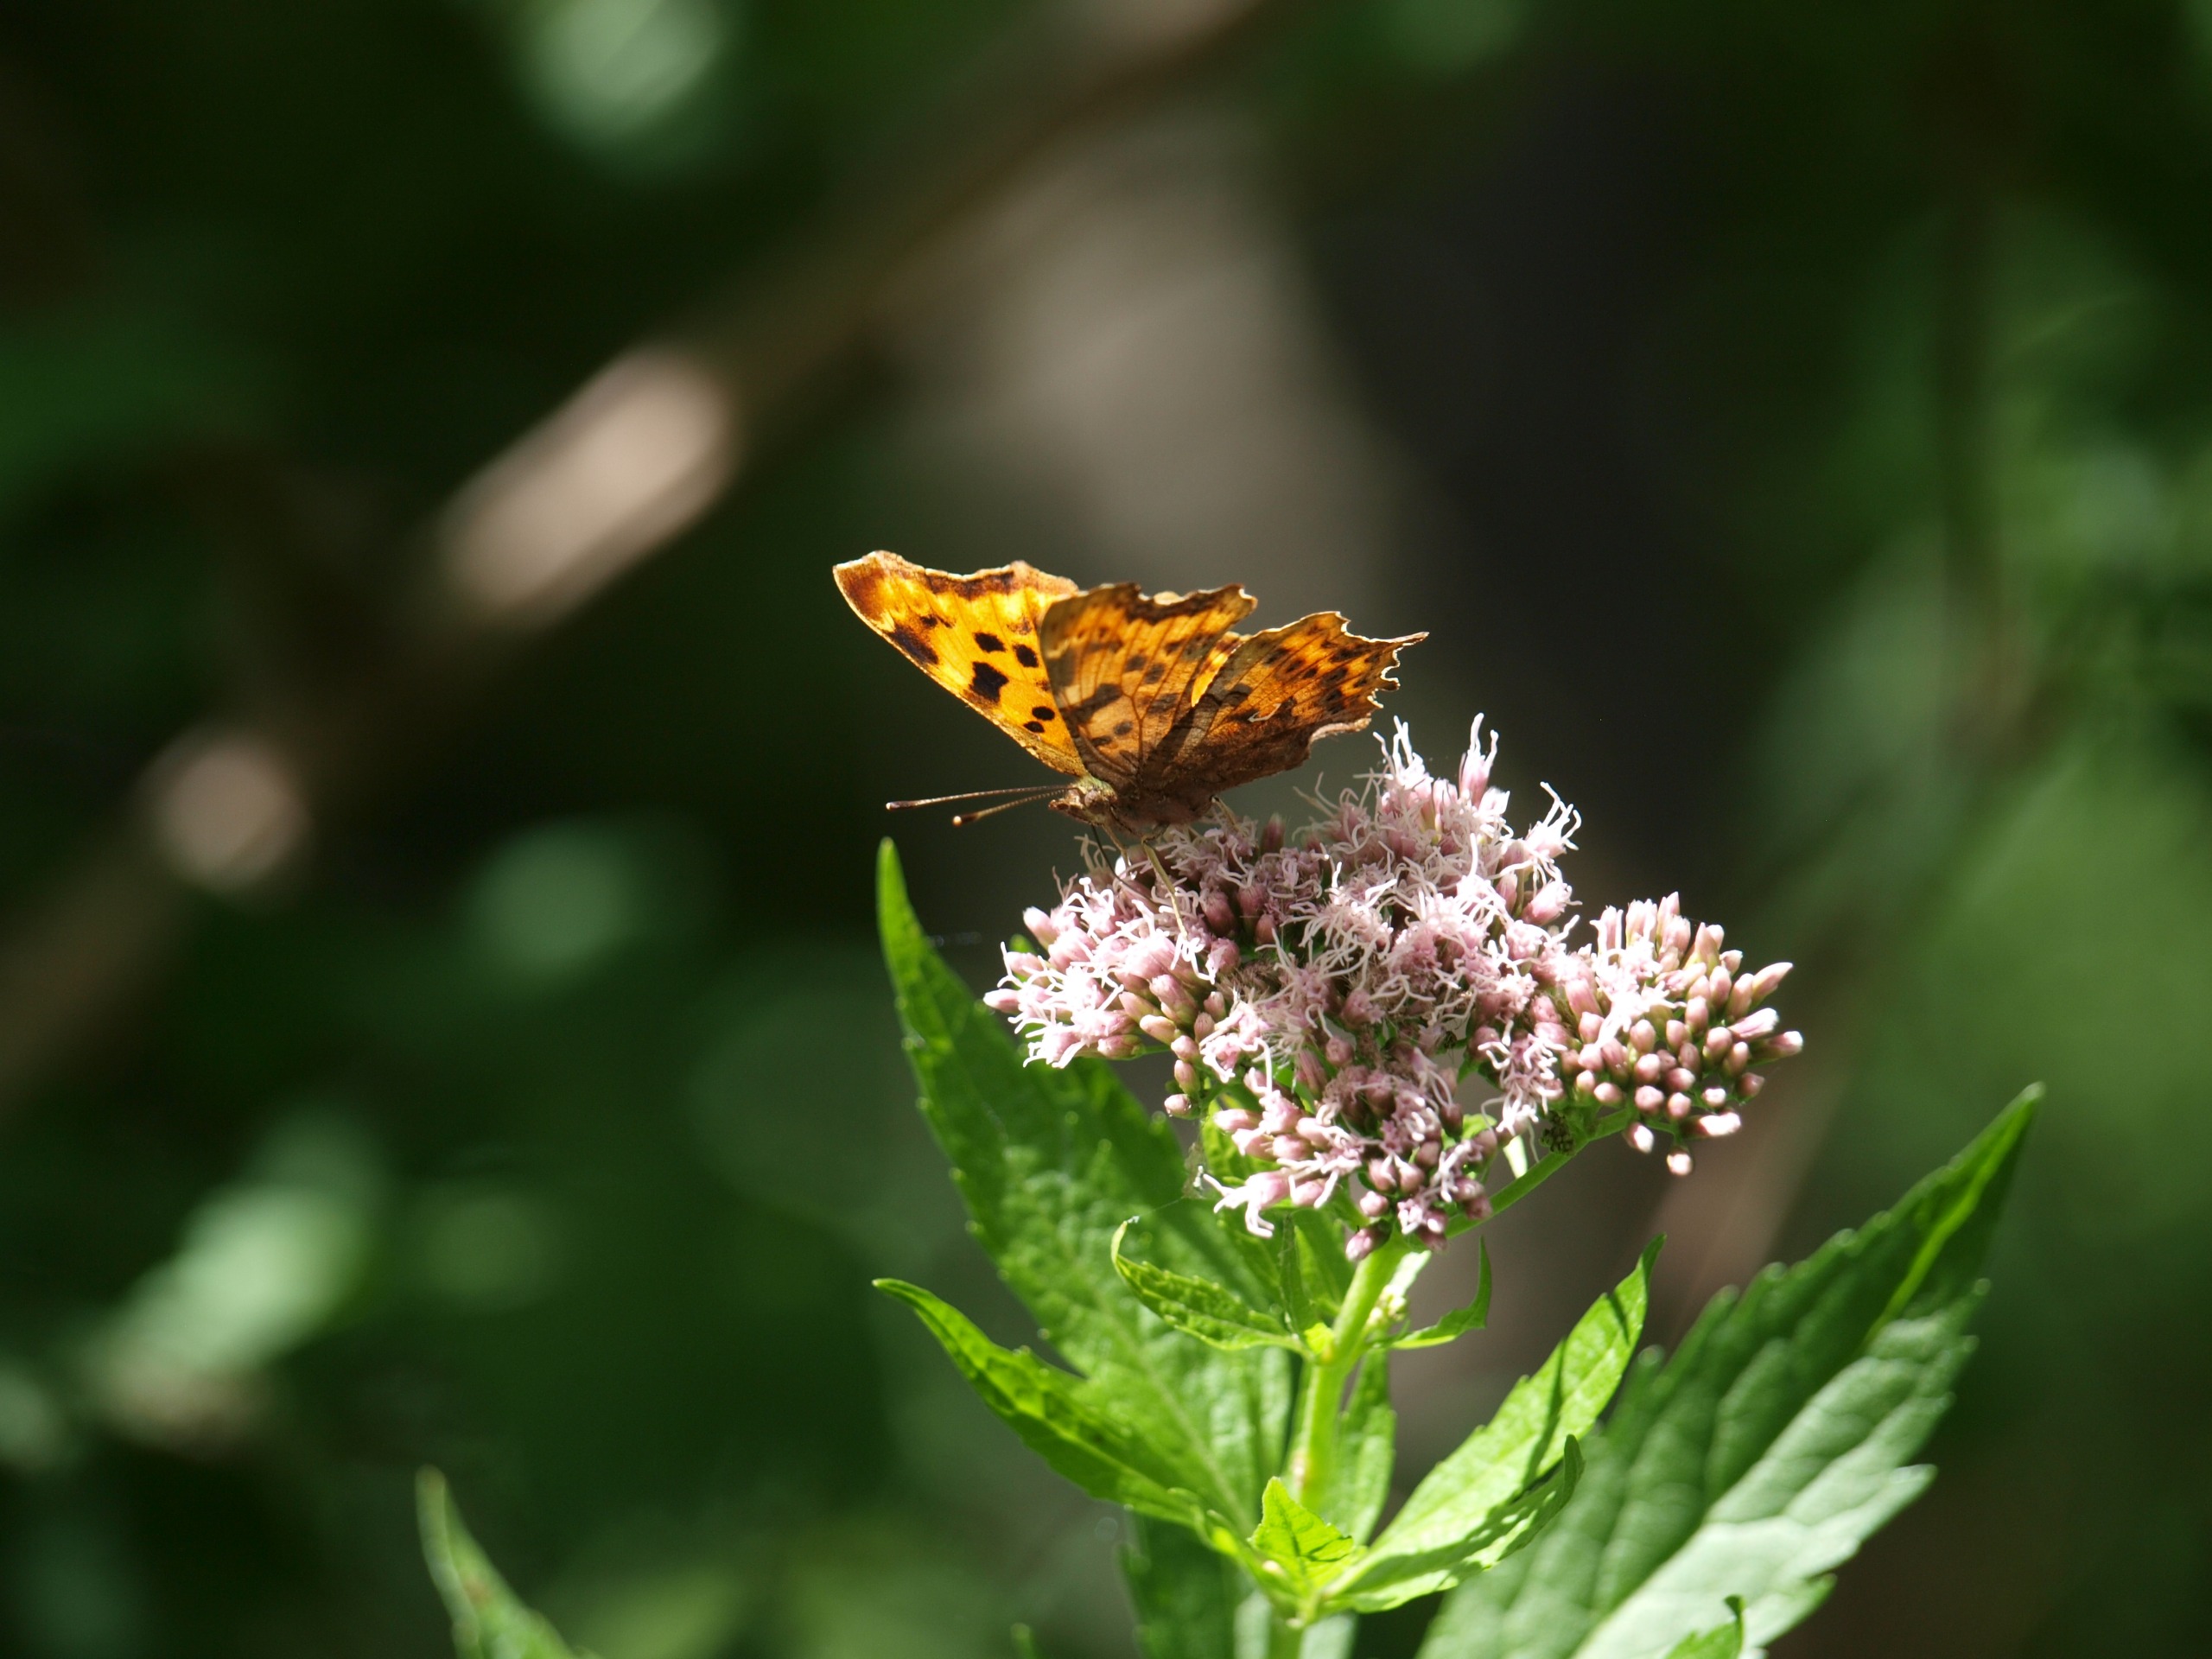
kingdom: Animalia
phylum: Arthropoda
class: Insecta
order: Lepidoptera
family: Nymphalidae
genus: Polygonia
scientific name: Polygonia c-album
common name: Det hvide C
